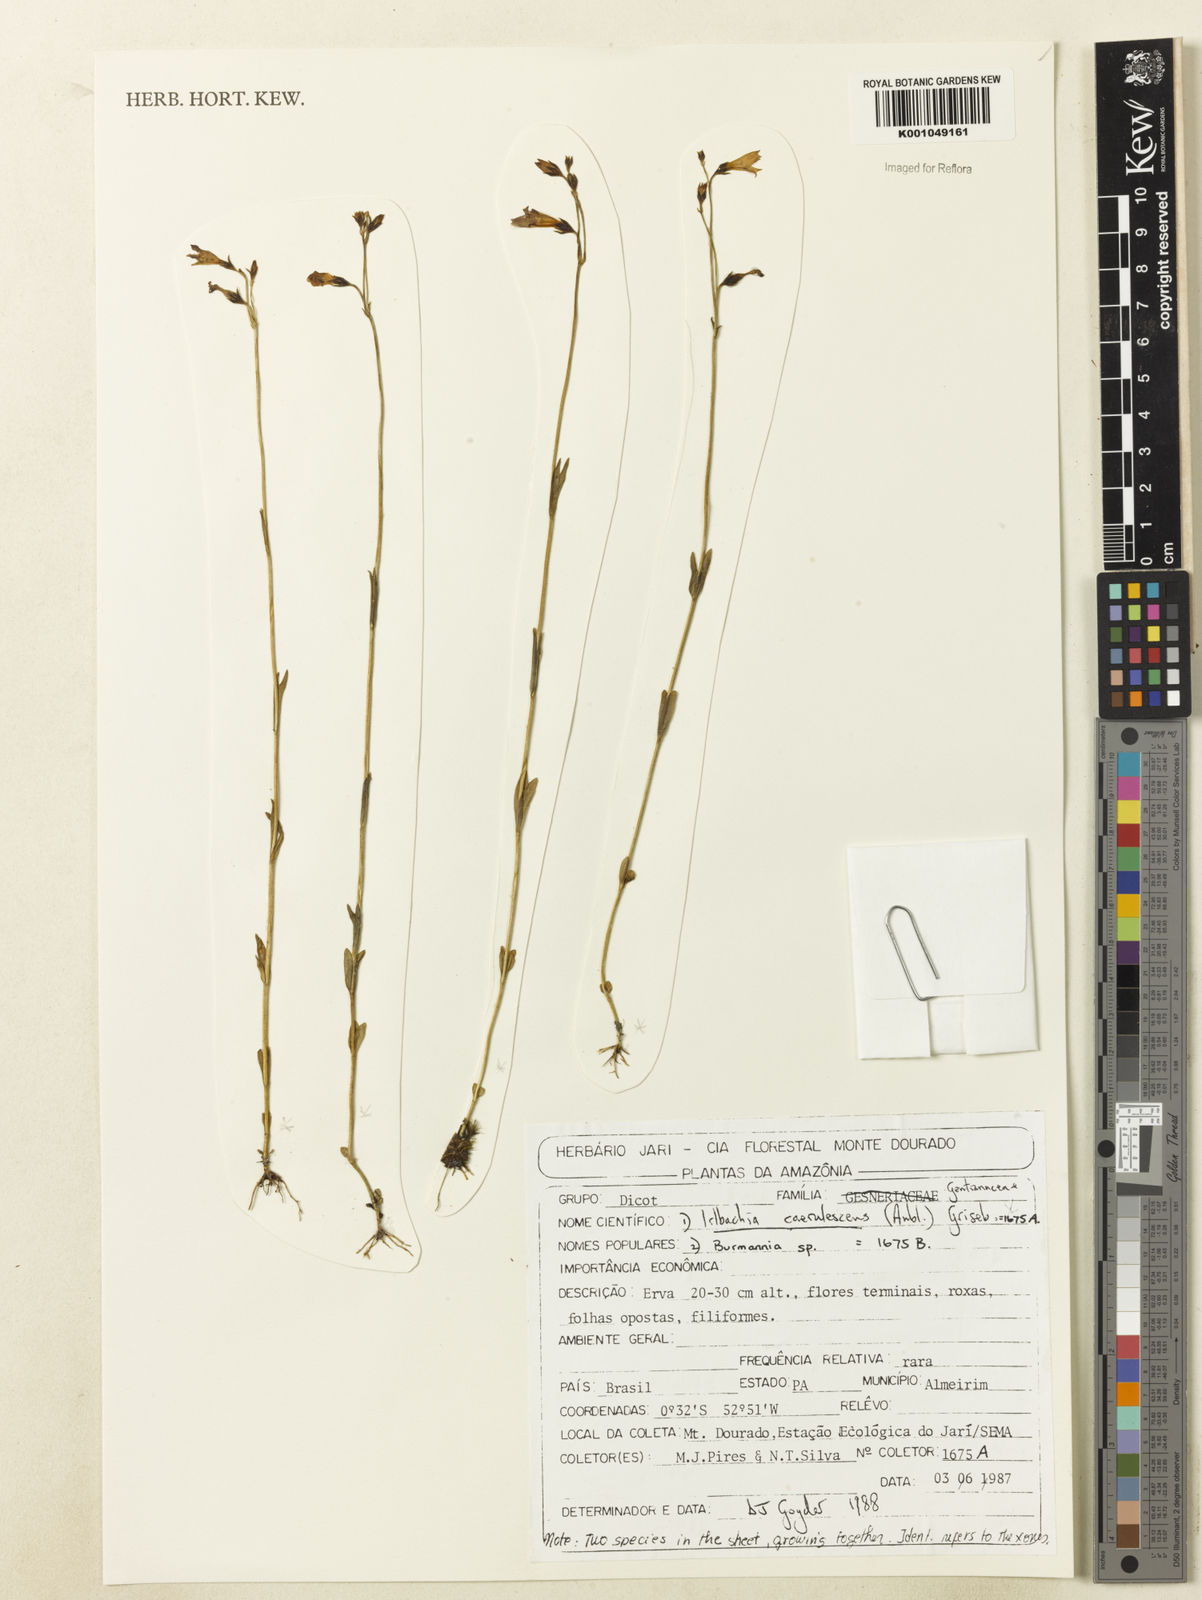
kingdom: Plantae
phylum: Tracheophyta
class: Magnoliopsida
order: Gentianales
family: Gentianaceae
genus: Tetrapollinia
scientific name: Tetrapollinia caerulescens
